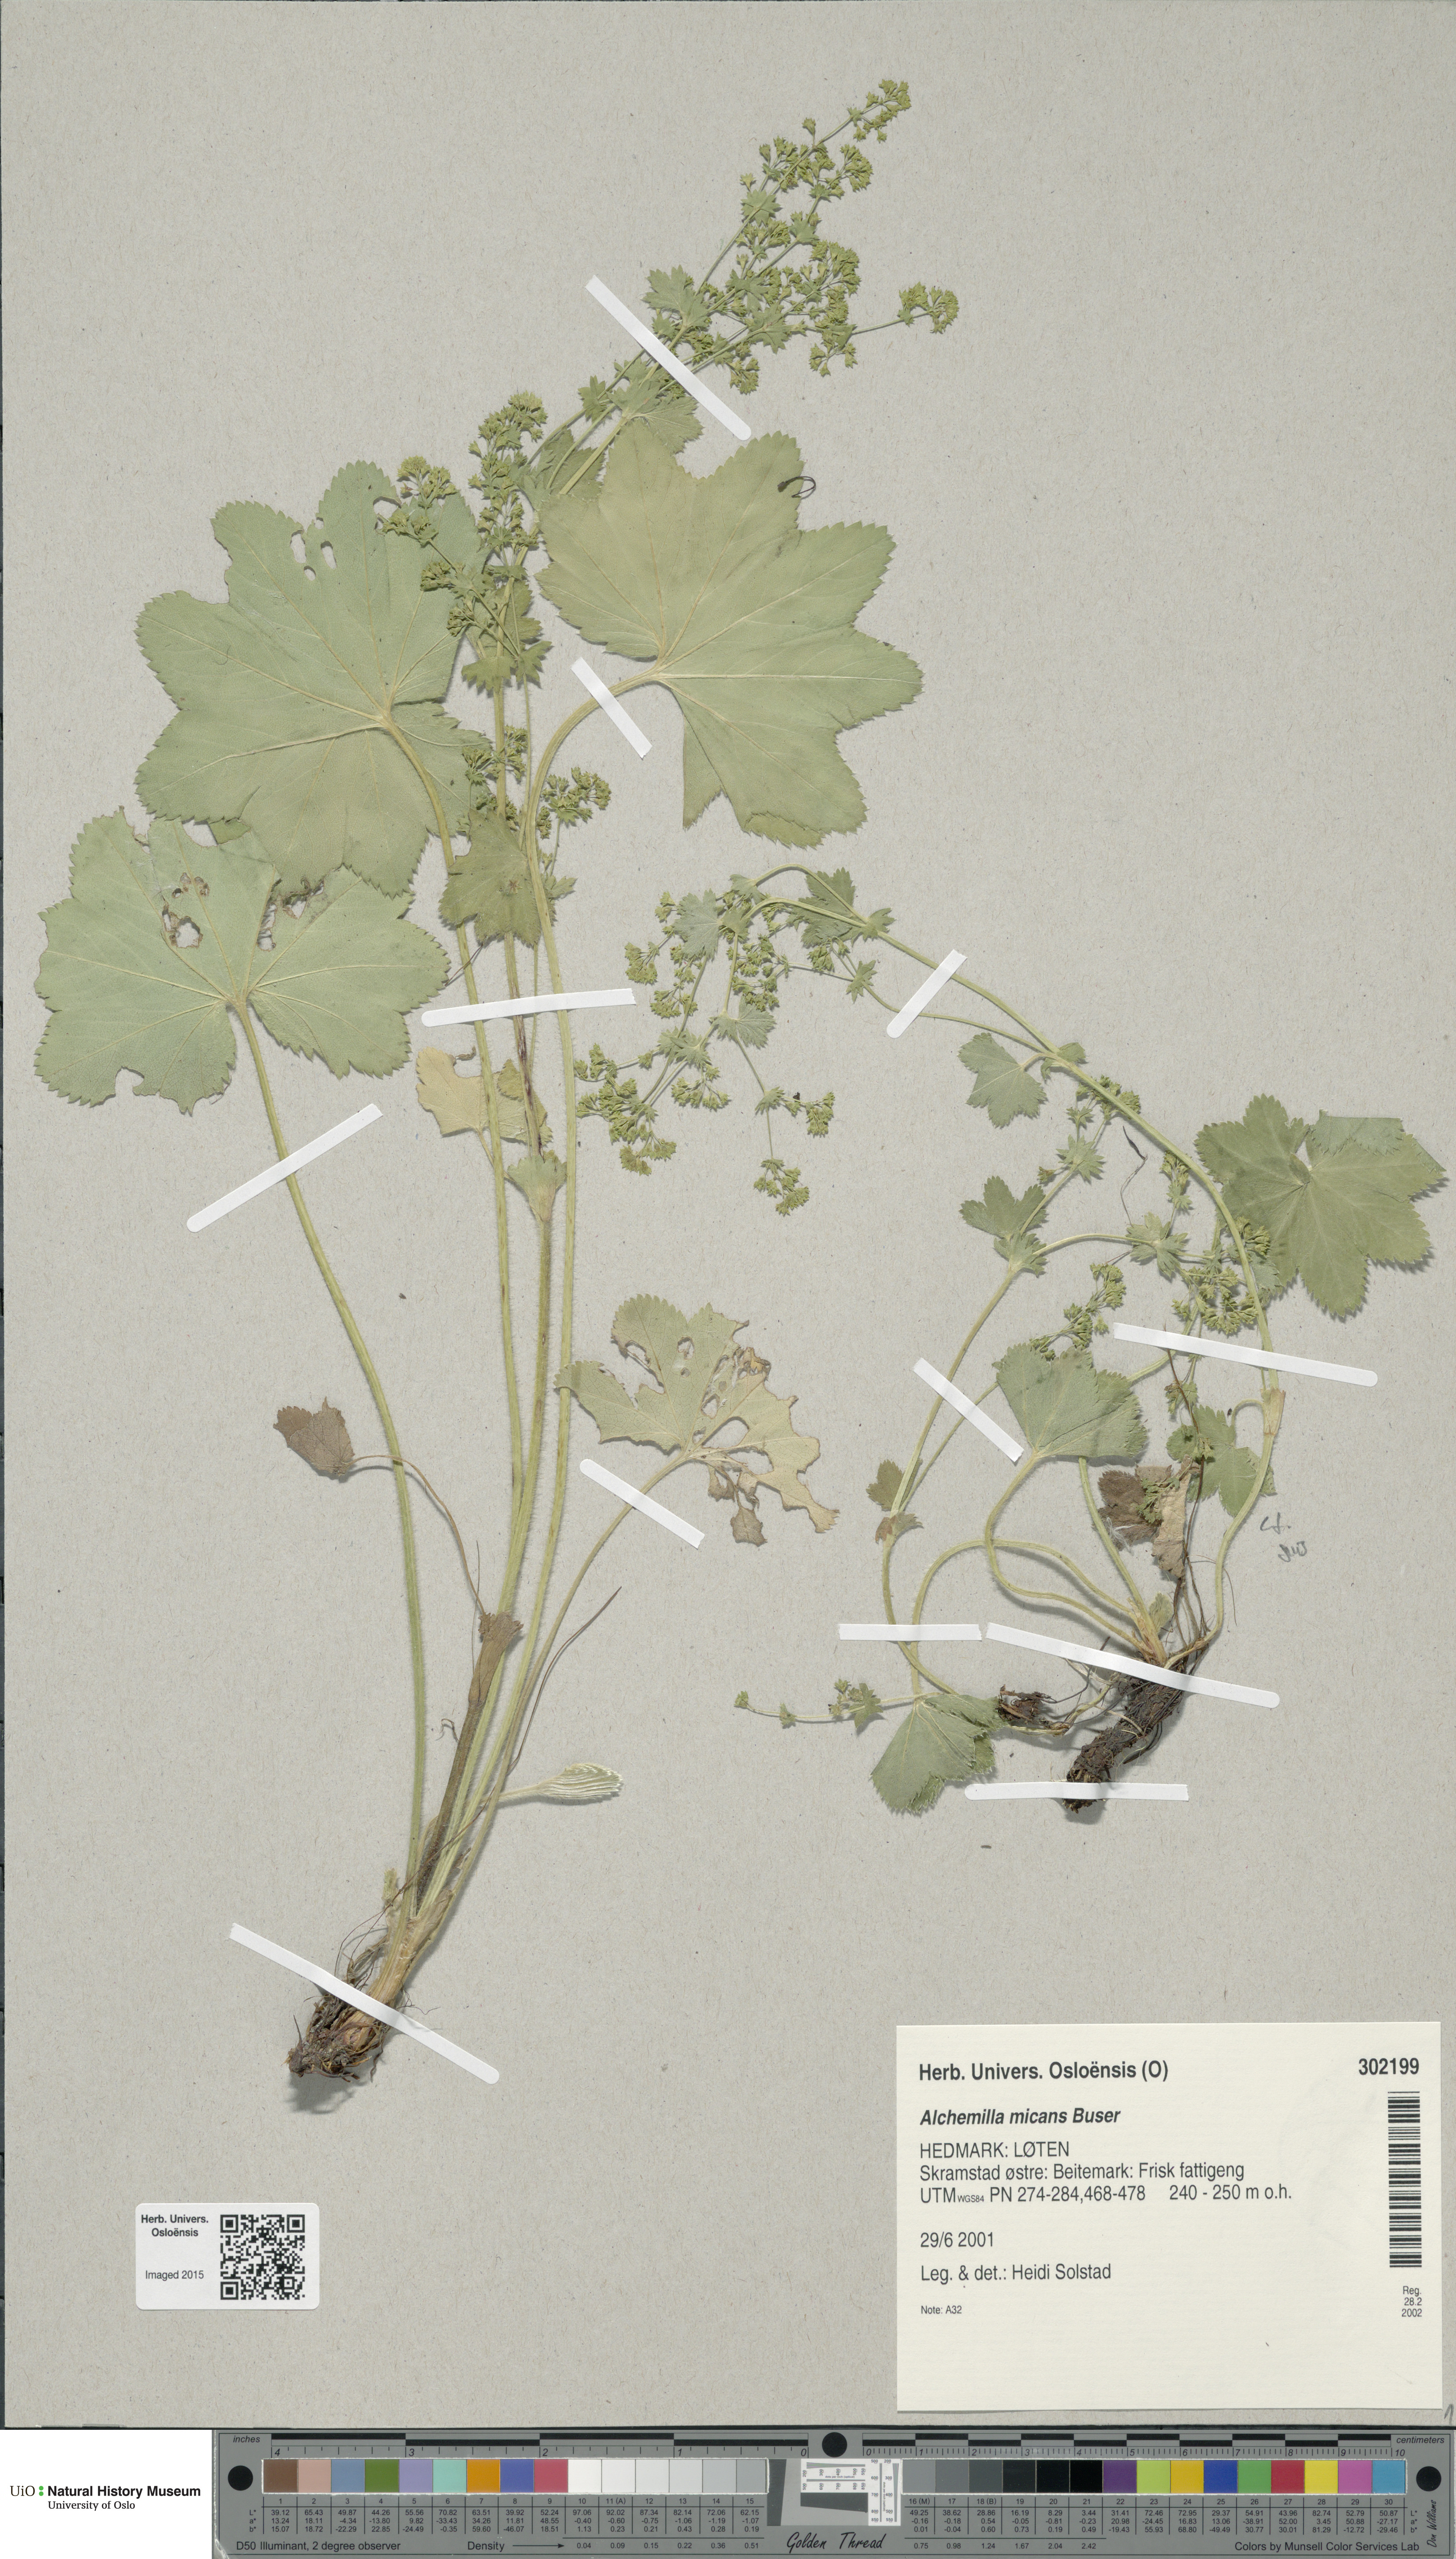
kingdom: Plantae
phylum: Tracheophyta
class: Magnoliopsida
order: Rosales
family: Rosaceae
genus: Alchemilla
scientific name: Alchemilla micans
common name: Gleaming lady's mantle
